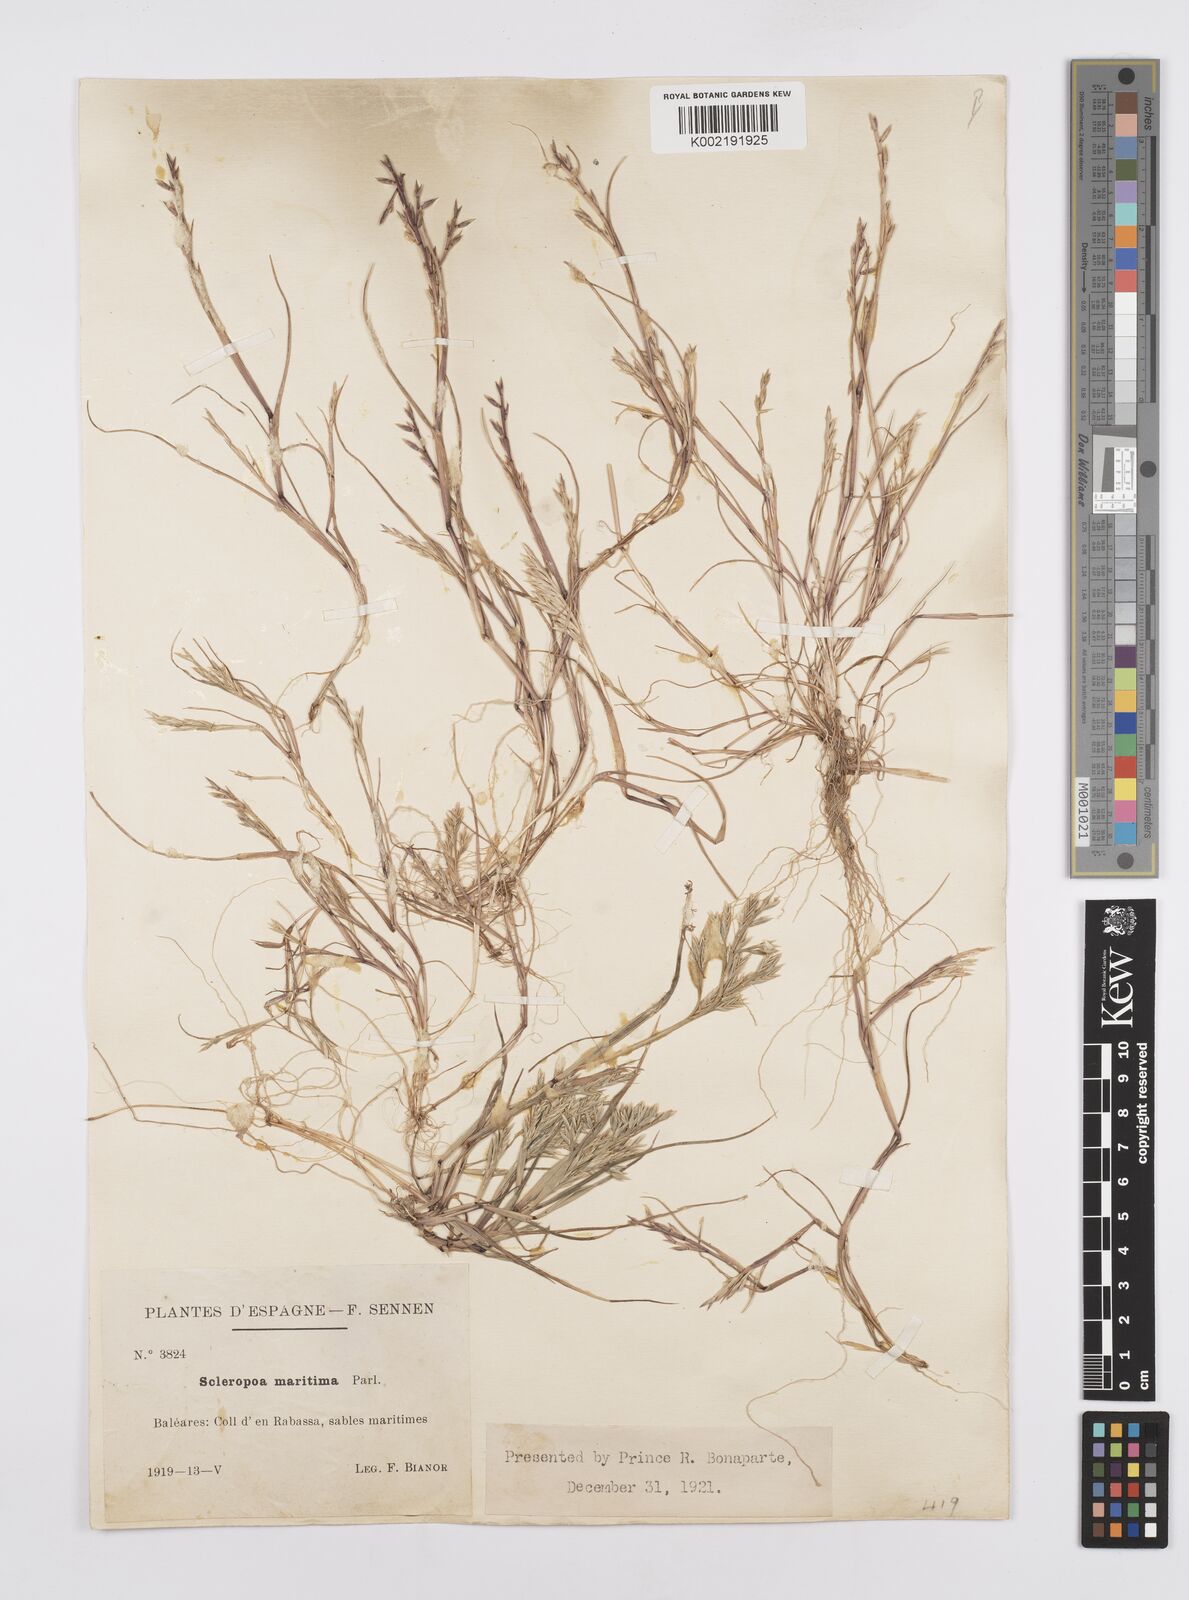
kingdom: Plantae
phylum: Tracheophyta
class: Liliopsida
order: Poales
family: Poaceae
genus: Cutandia
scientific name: Cutandia maritima
